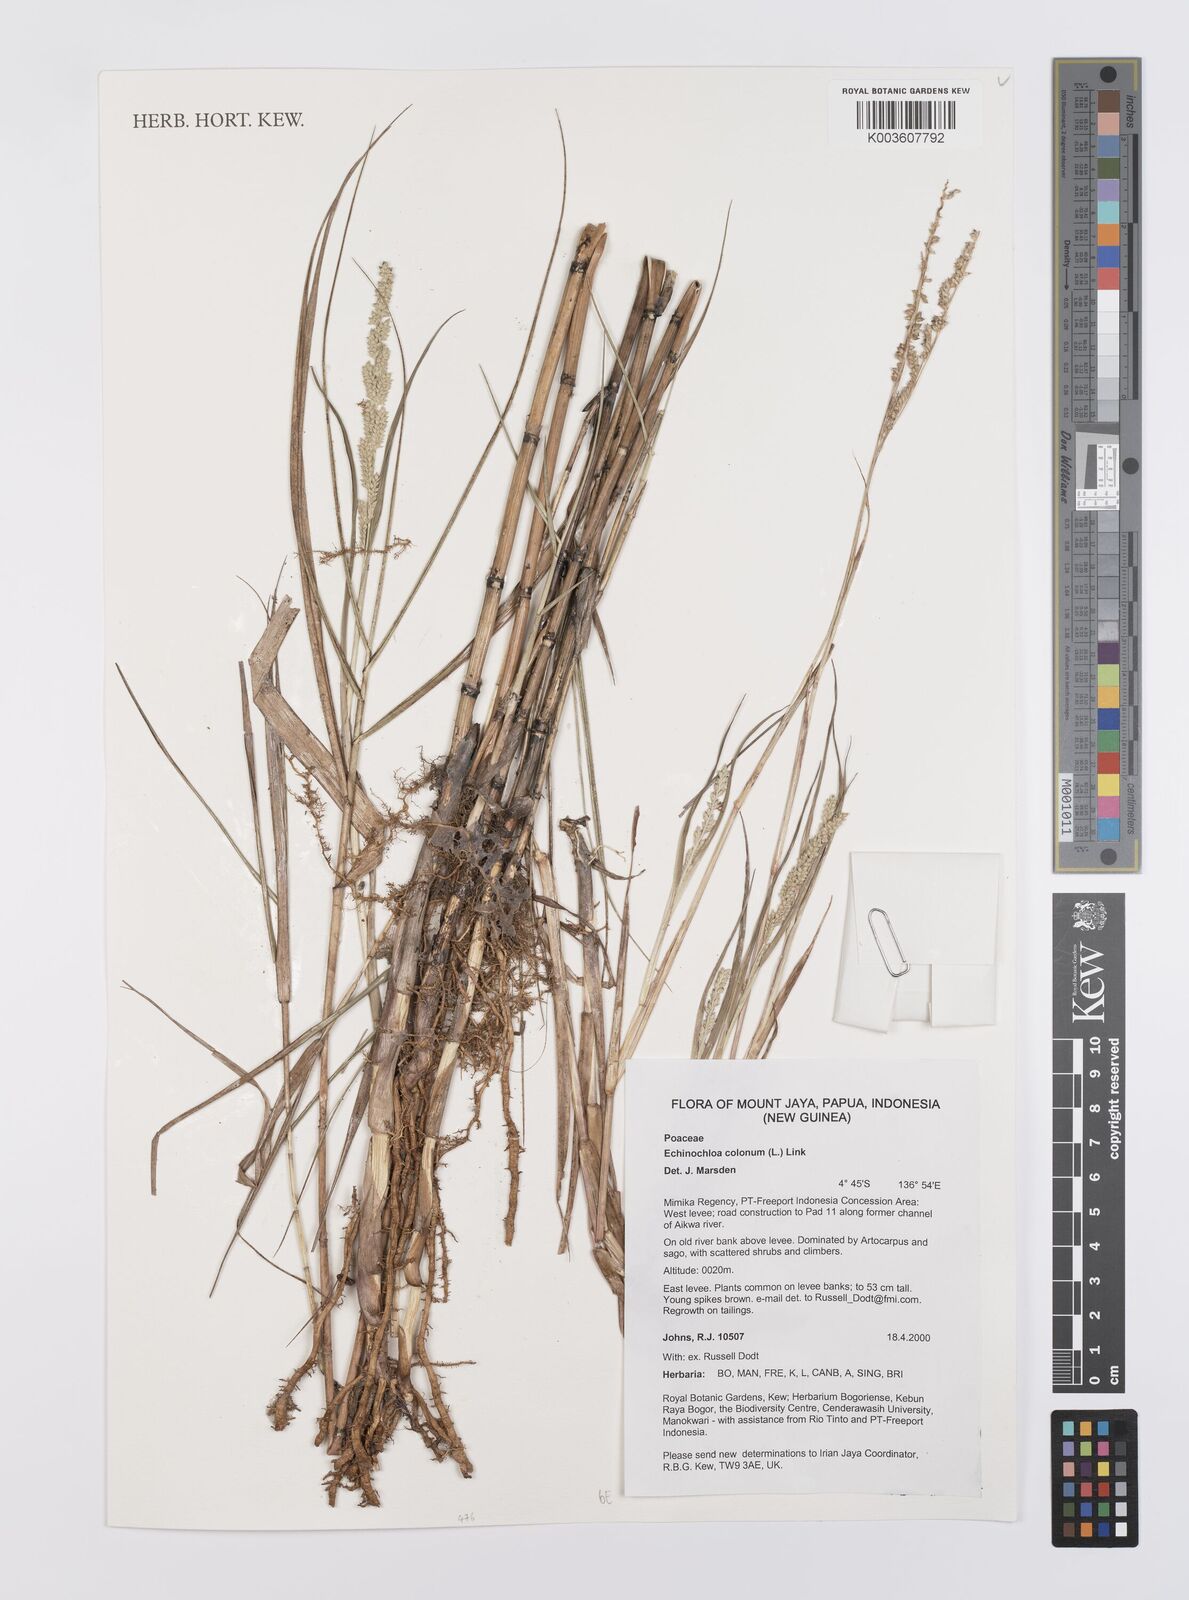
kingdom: Plantae
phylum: Tracheophyta
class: Liliopsida
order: Poales
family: Poaceae
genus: Echinochloa
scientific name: Echinochloa colonum
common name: Jungle rice
